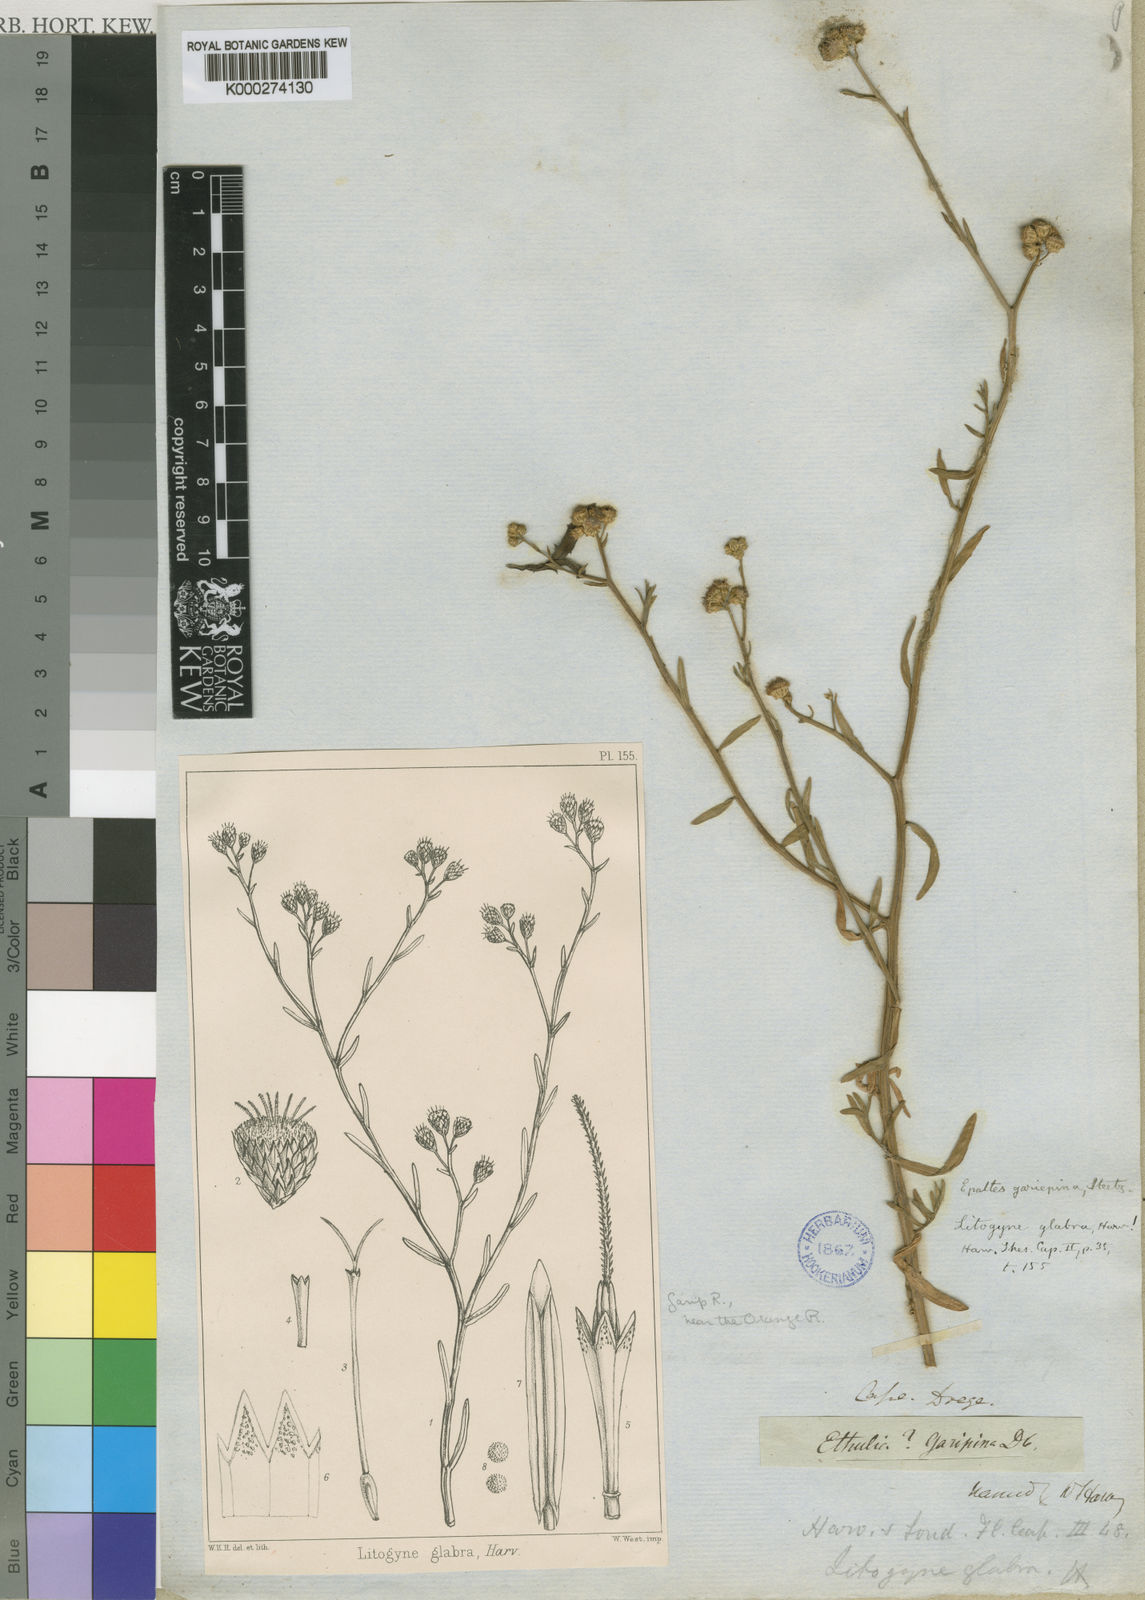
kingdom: Plantae
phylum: Tracheophyta
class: Magnoliopsida
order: Asterales
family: Asteraceae
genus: Litogyne
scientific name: Litogyne gariepina
